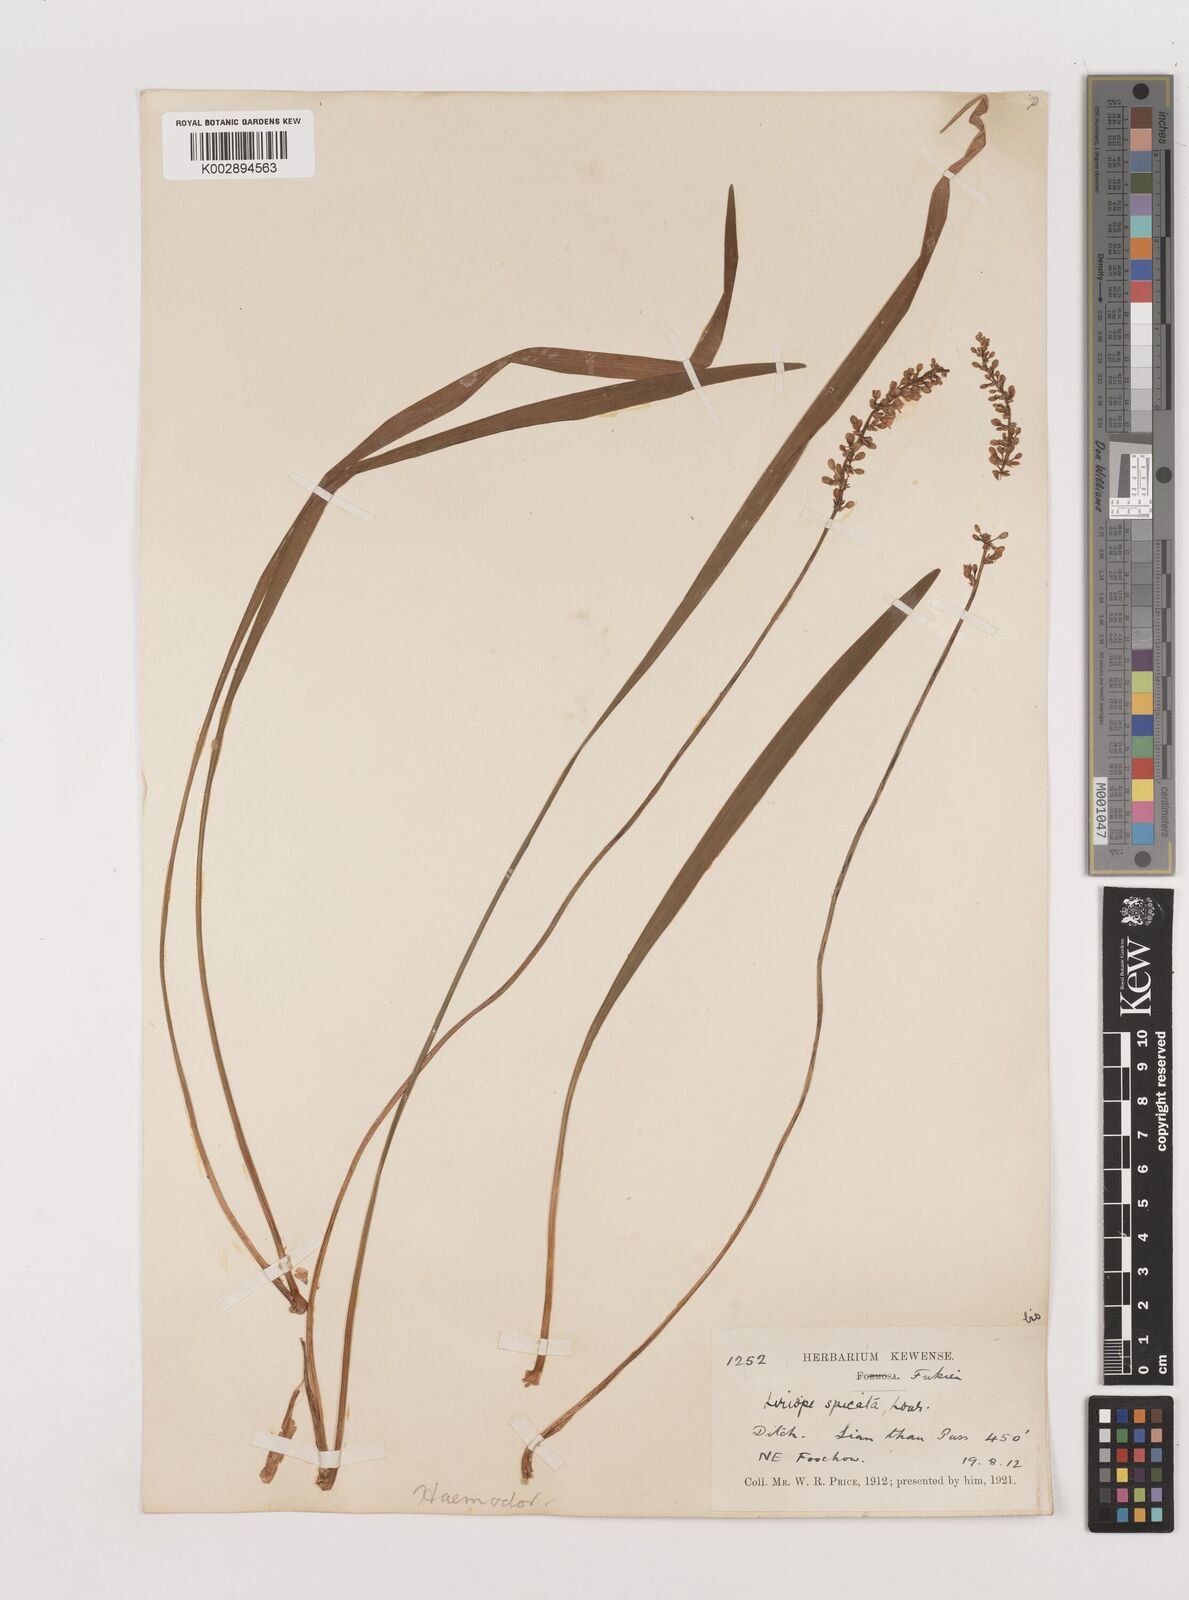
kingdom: Plantae
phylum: Tracheophyta
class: Liliopsida
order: Asparagales
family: Asparagaceae
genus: Liriope
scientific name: Liriope spicata
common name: Creeping liriope
